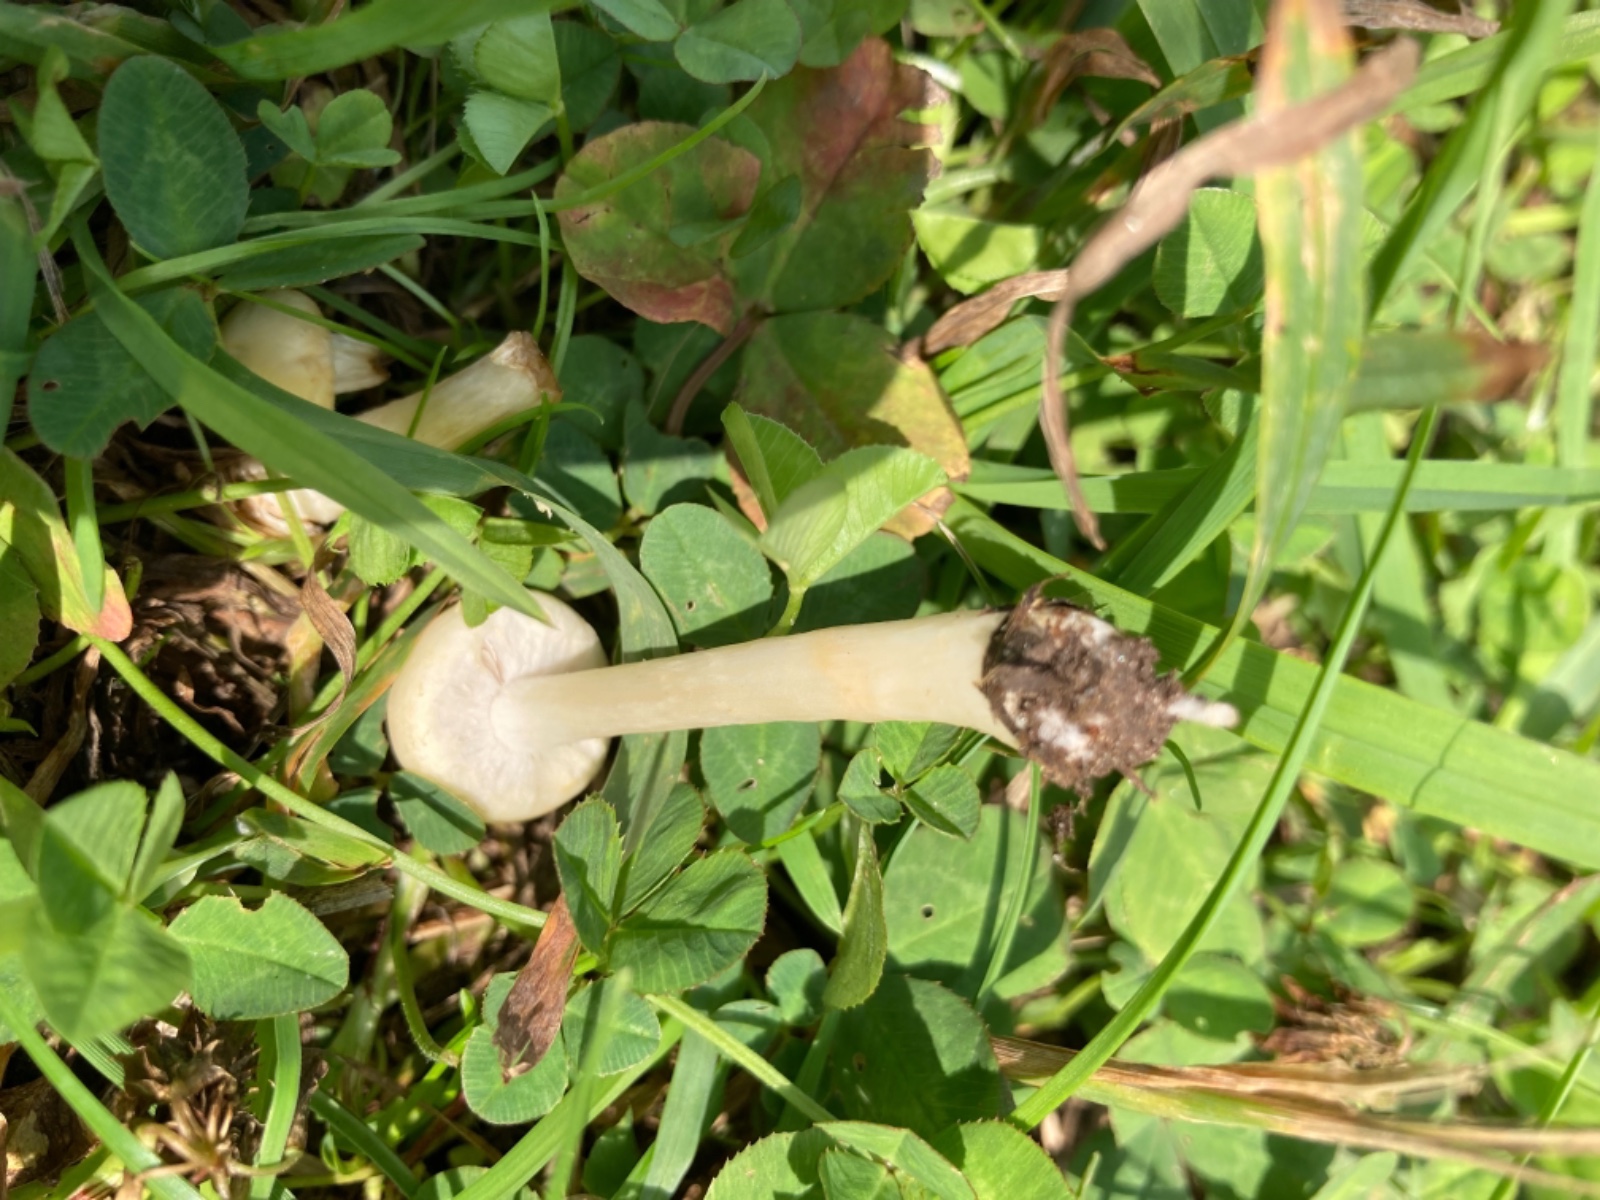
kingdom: Fungi
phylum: Basidiomycota
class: Agaricomycetes
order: Agaricales
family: Strophariaceae
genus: Agrocybe
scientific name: Agrocybe
